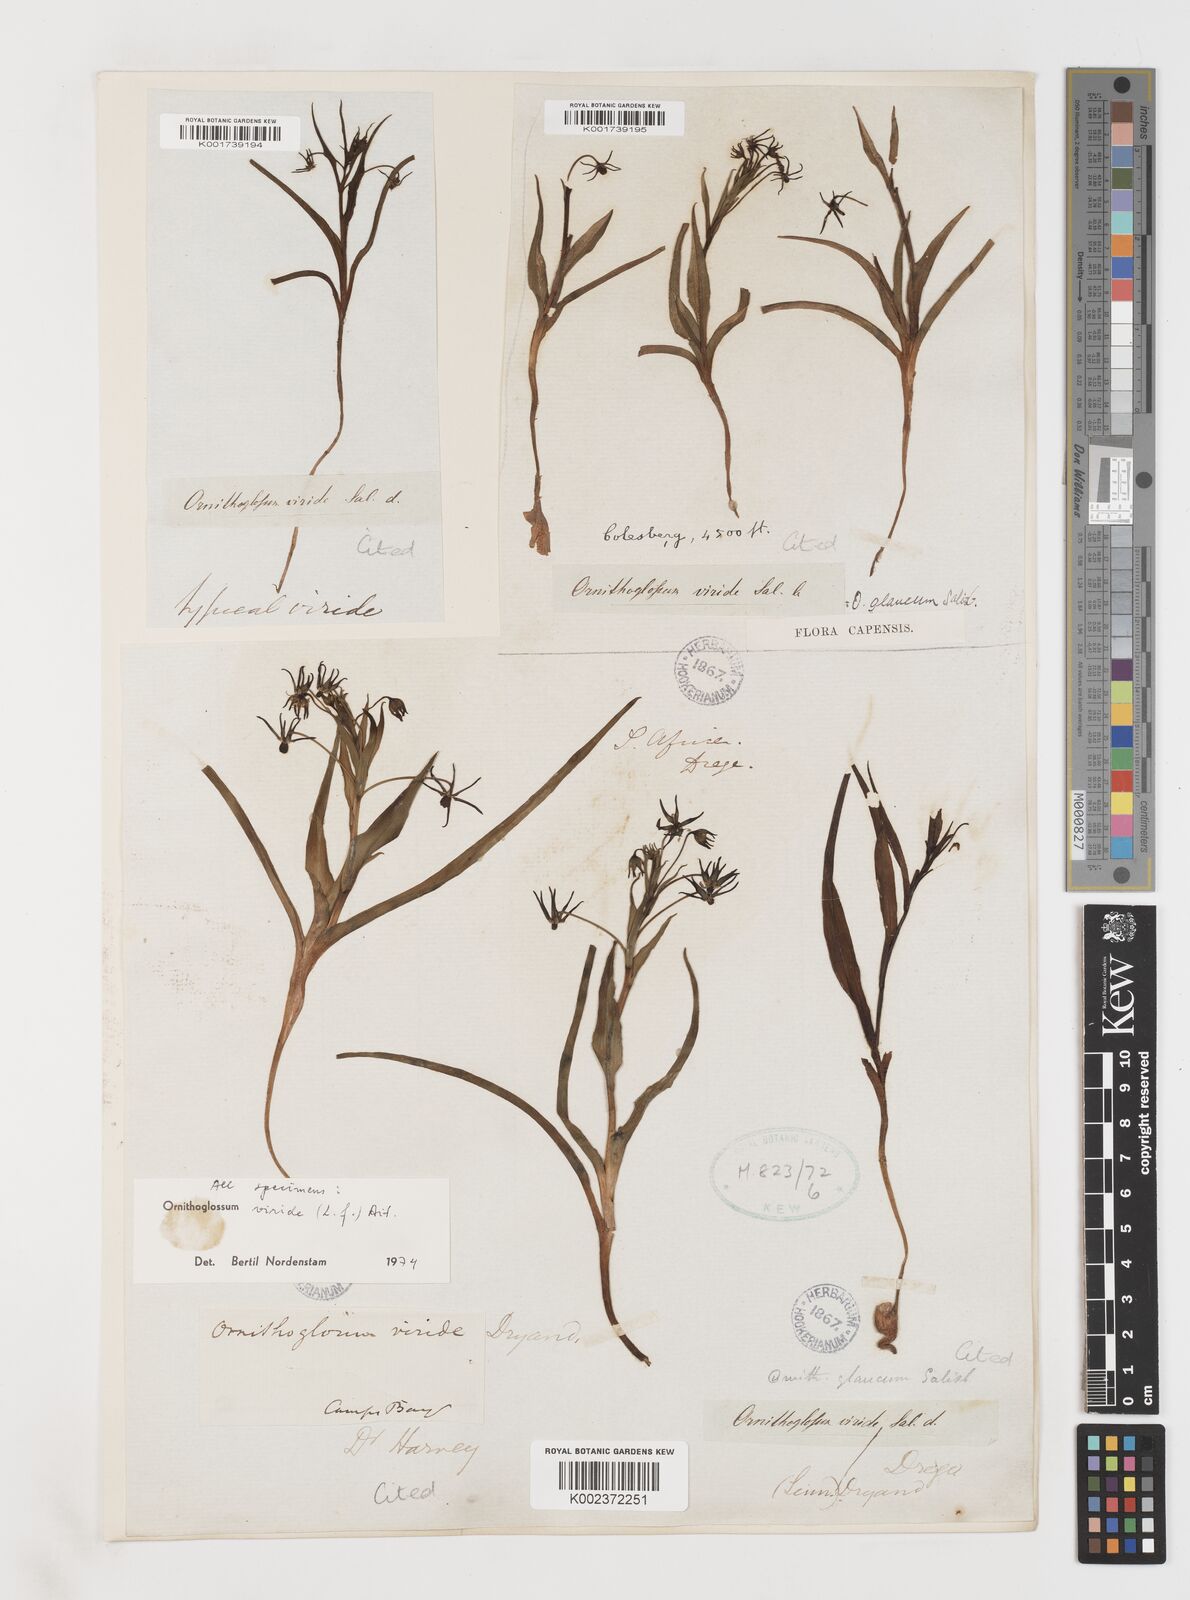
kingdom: Plantae
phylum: Tracheophyta
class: Liliopsida
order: Liliales
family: Colchicaceae
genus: Ornithoglossum
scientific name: Ornithoglossum viride
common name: Cape poison-onion
